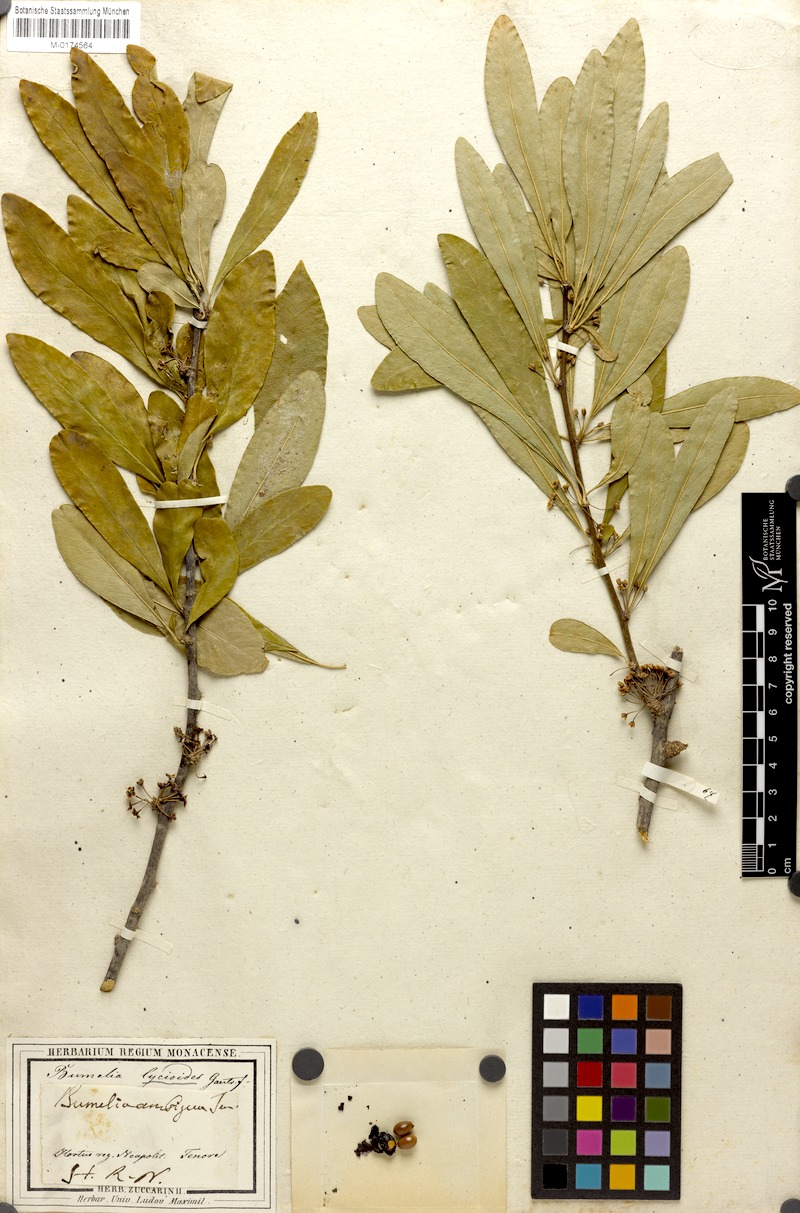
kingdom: Plantae
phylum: Tracheophyta
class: Magnoliopsida
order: Ericales
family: Sapotaceae
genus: Sideroxylon
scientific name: Sideroxylon lycioides
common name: Buckthorn bumelia
